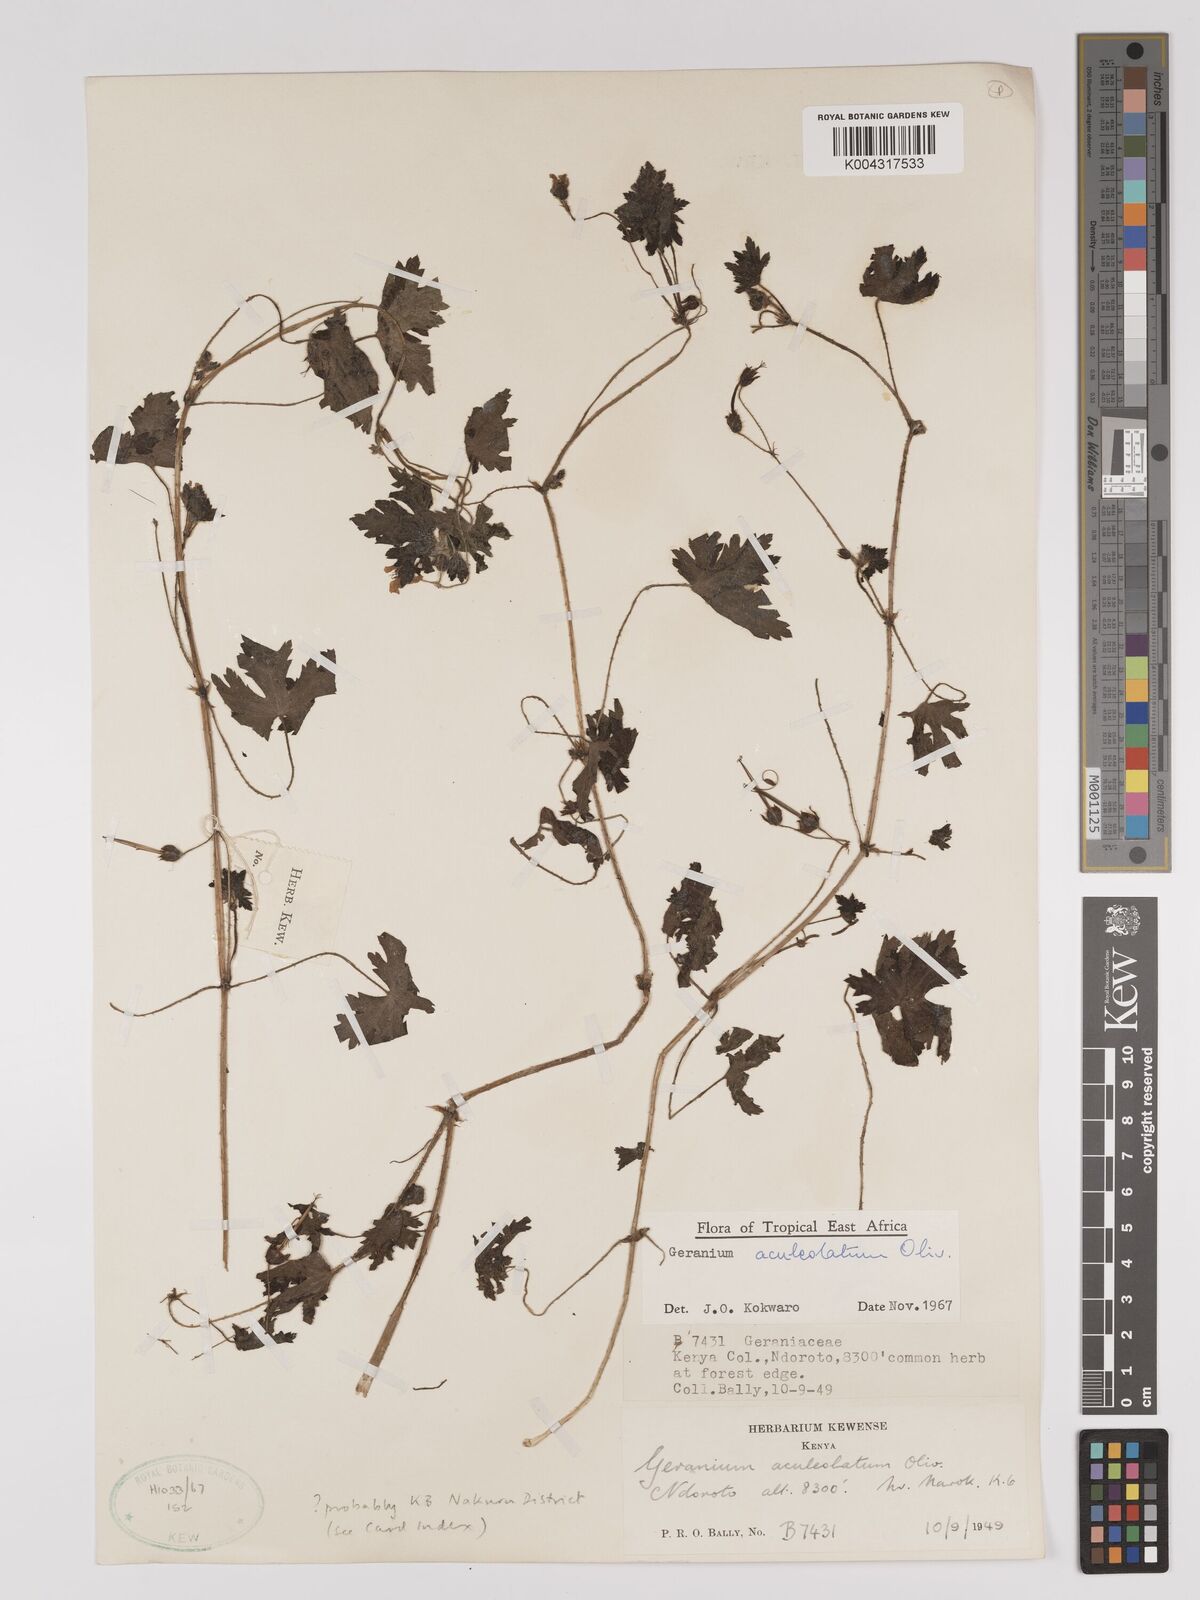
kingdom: Plantae
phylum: Tracheophyta
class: Magnoliopsida
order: Geraniales
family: Geraniaceae
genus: Geranium
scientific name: Geranium aculeolatum
